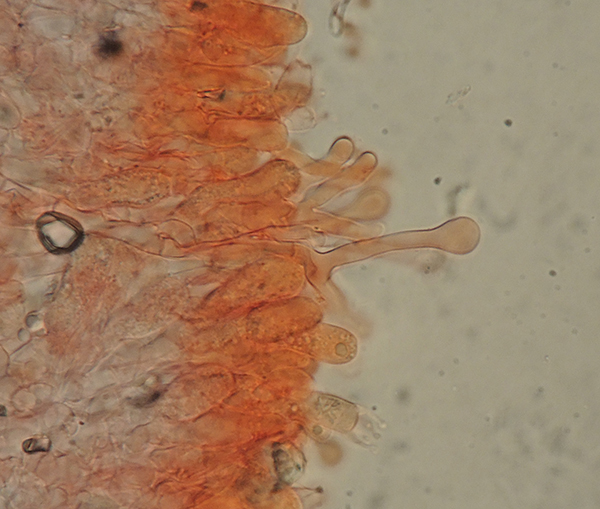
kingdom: Fungi
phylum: Basidiomycota
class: Agaricomycetes
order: Hymenochaetales
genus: Kurtia
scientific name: Kurtia argillacea
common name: Kurts kalkskind
